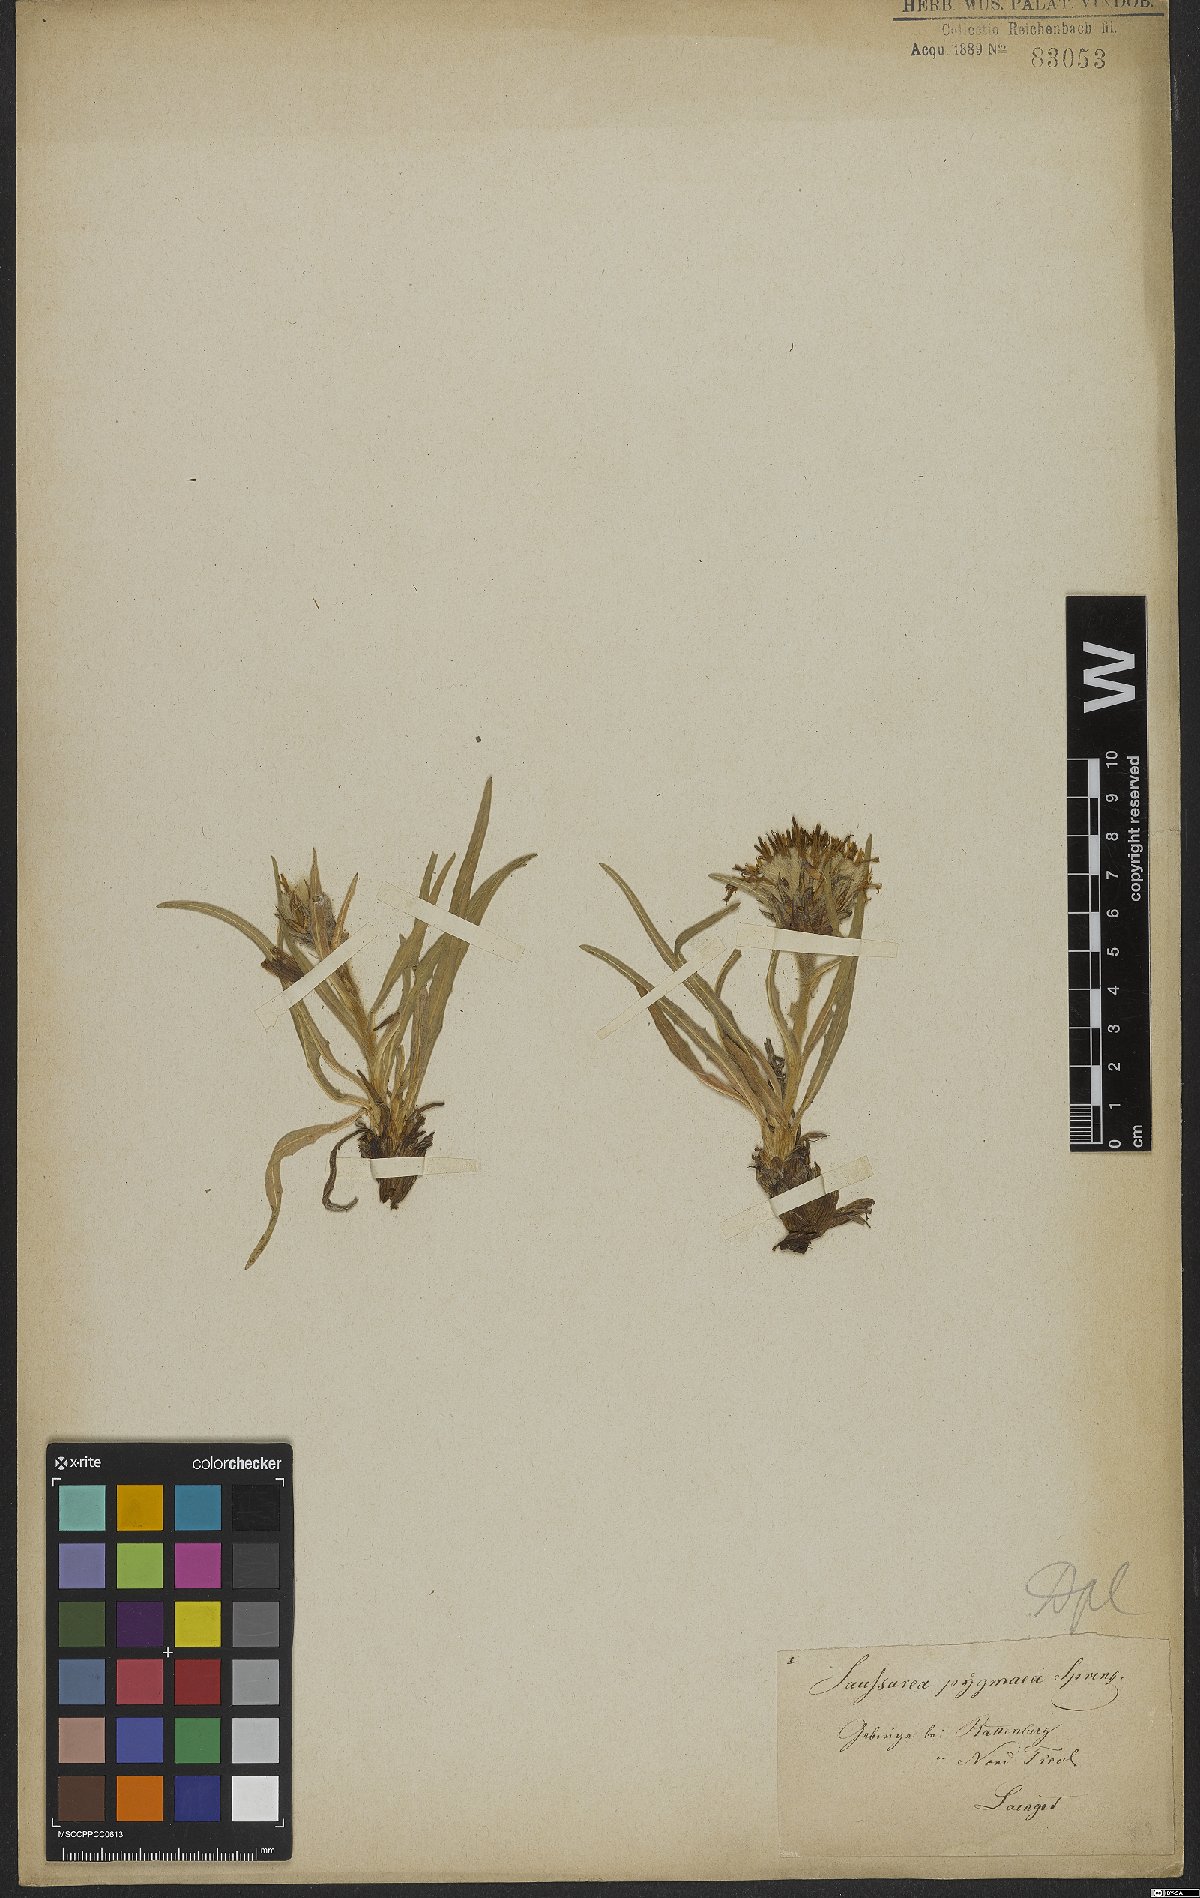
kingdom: Plantae
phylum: Tracheophyta
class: Magnoliopsida
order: Asterales
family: Asteraceae
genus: Saussurea
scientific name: Saussurea pygmaea
